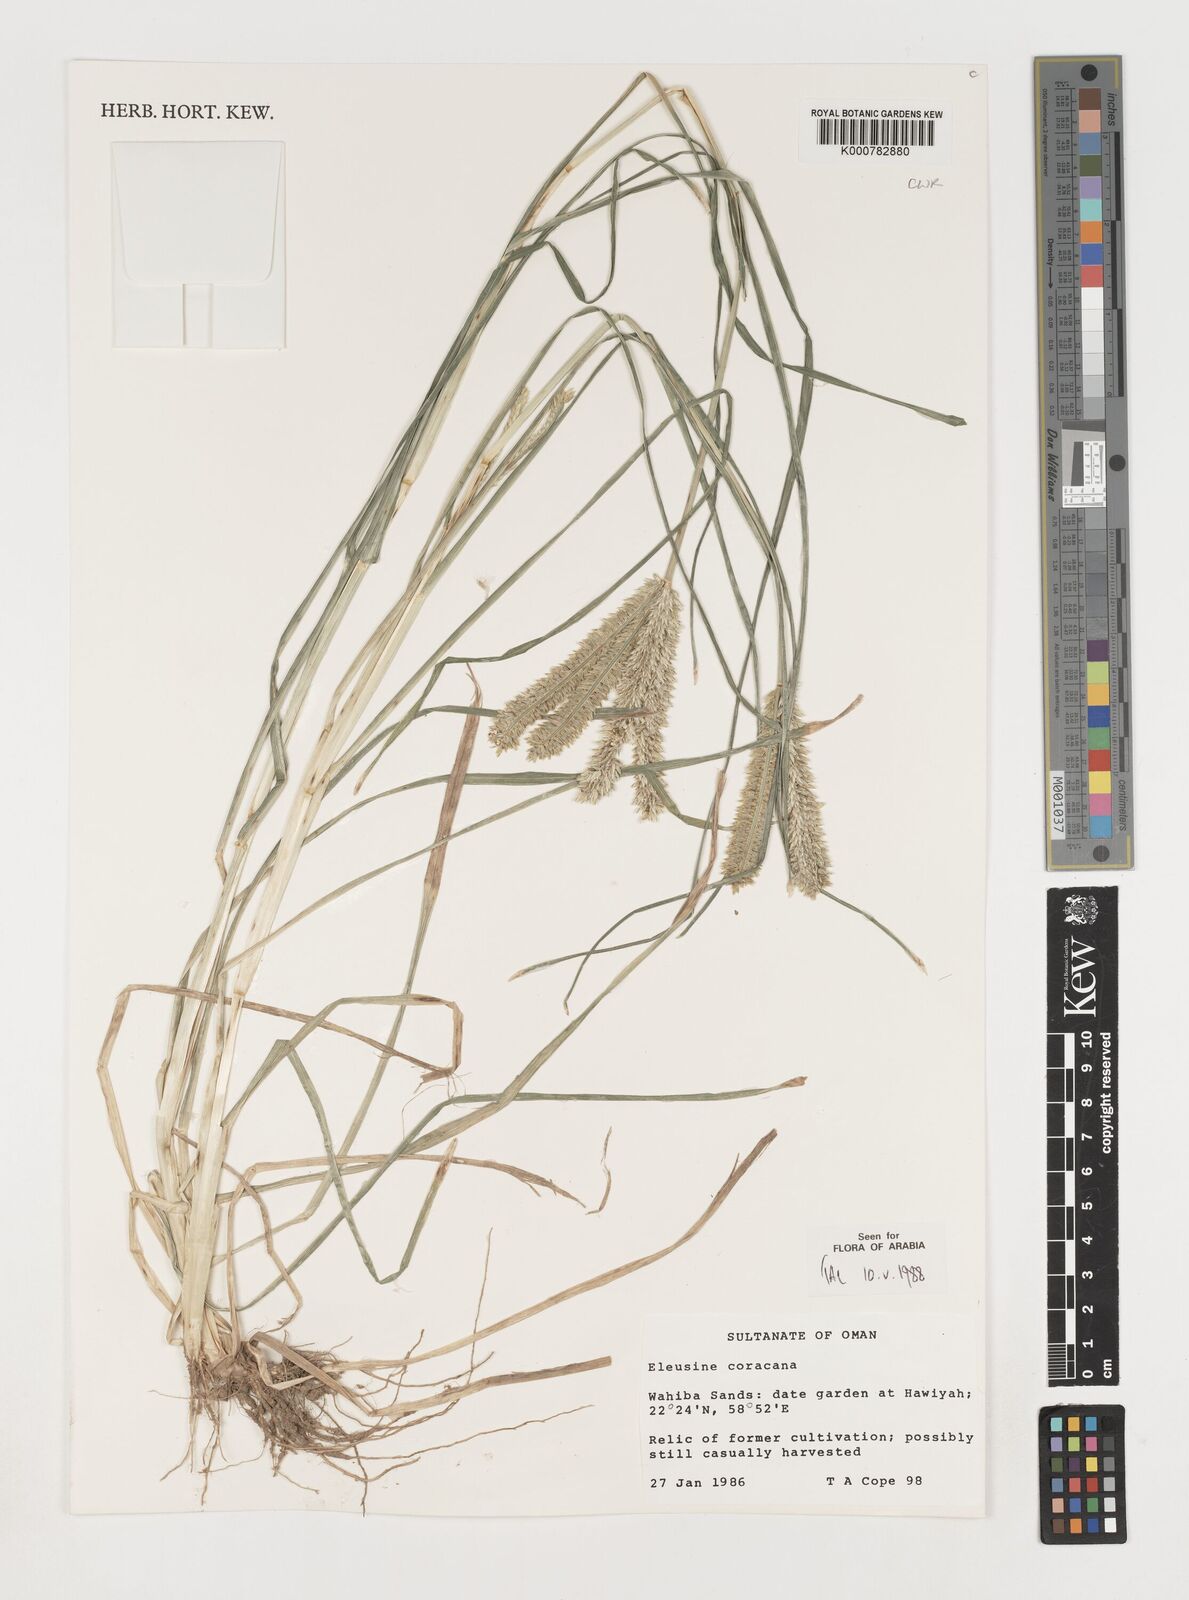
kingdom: Plantae
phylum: Tracheophyta
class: Liliopsida
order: Poales
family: Poaceae
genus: Eleusine
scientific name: Eleusine indica
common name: Yard-grass
